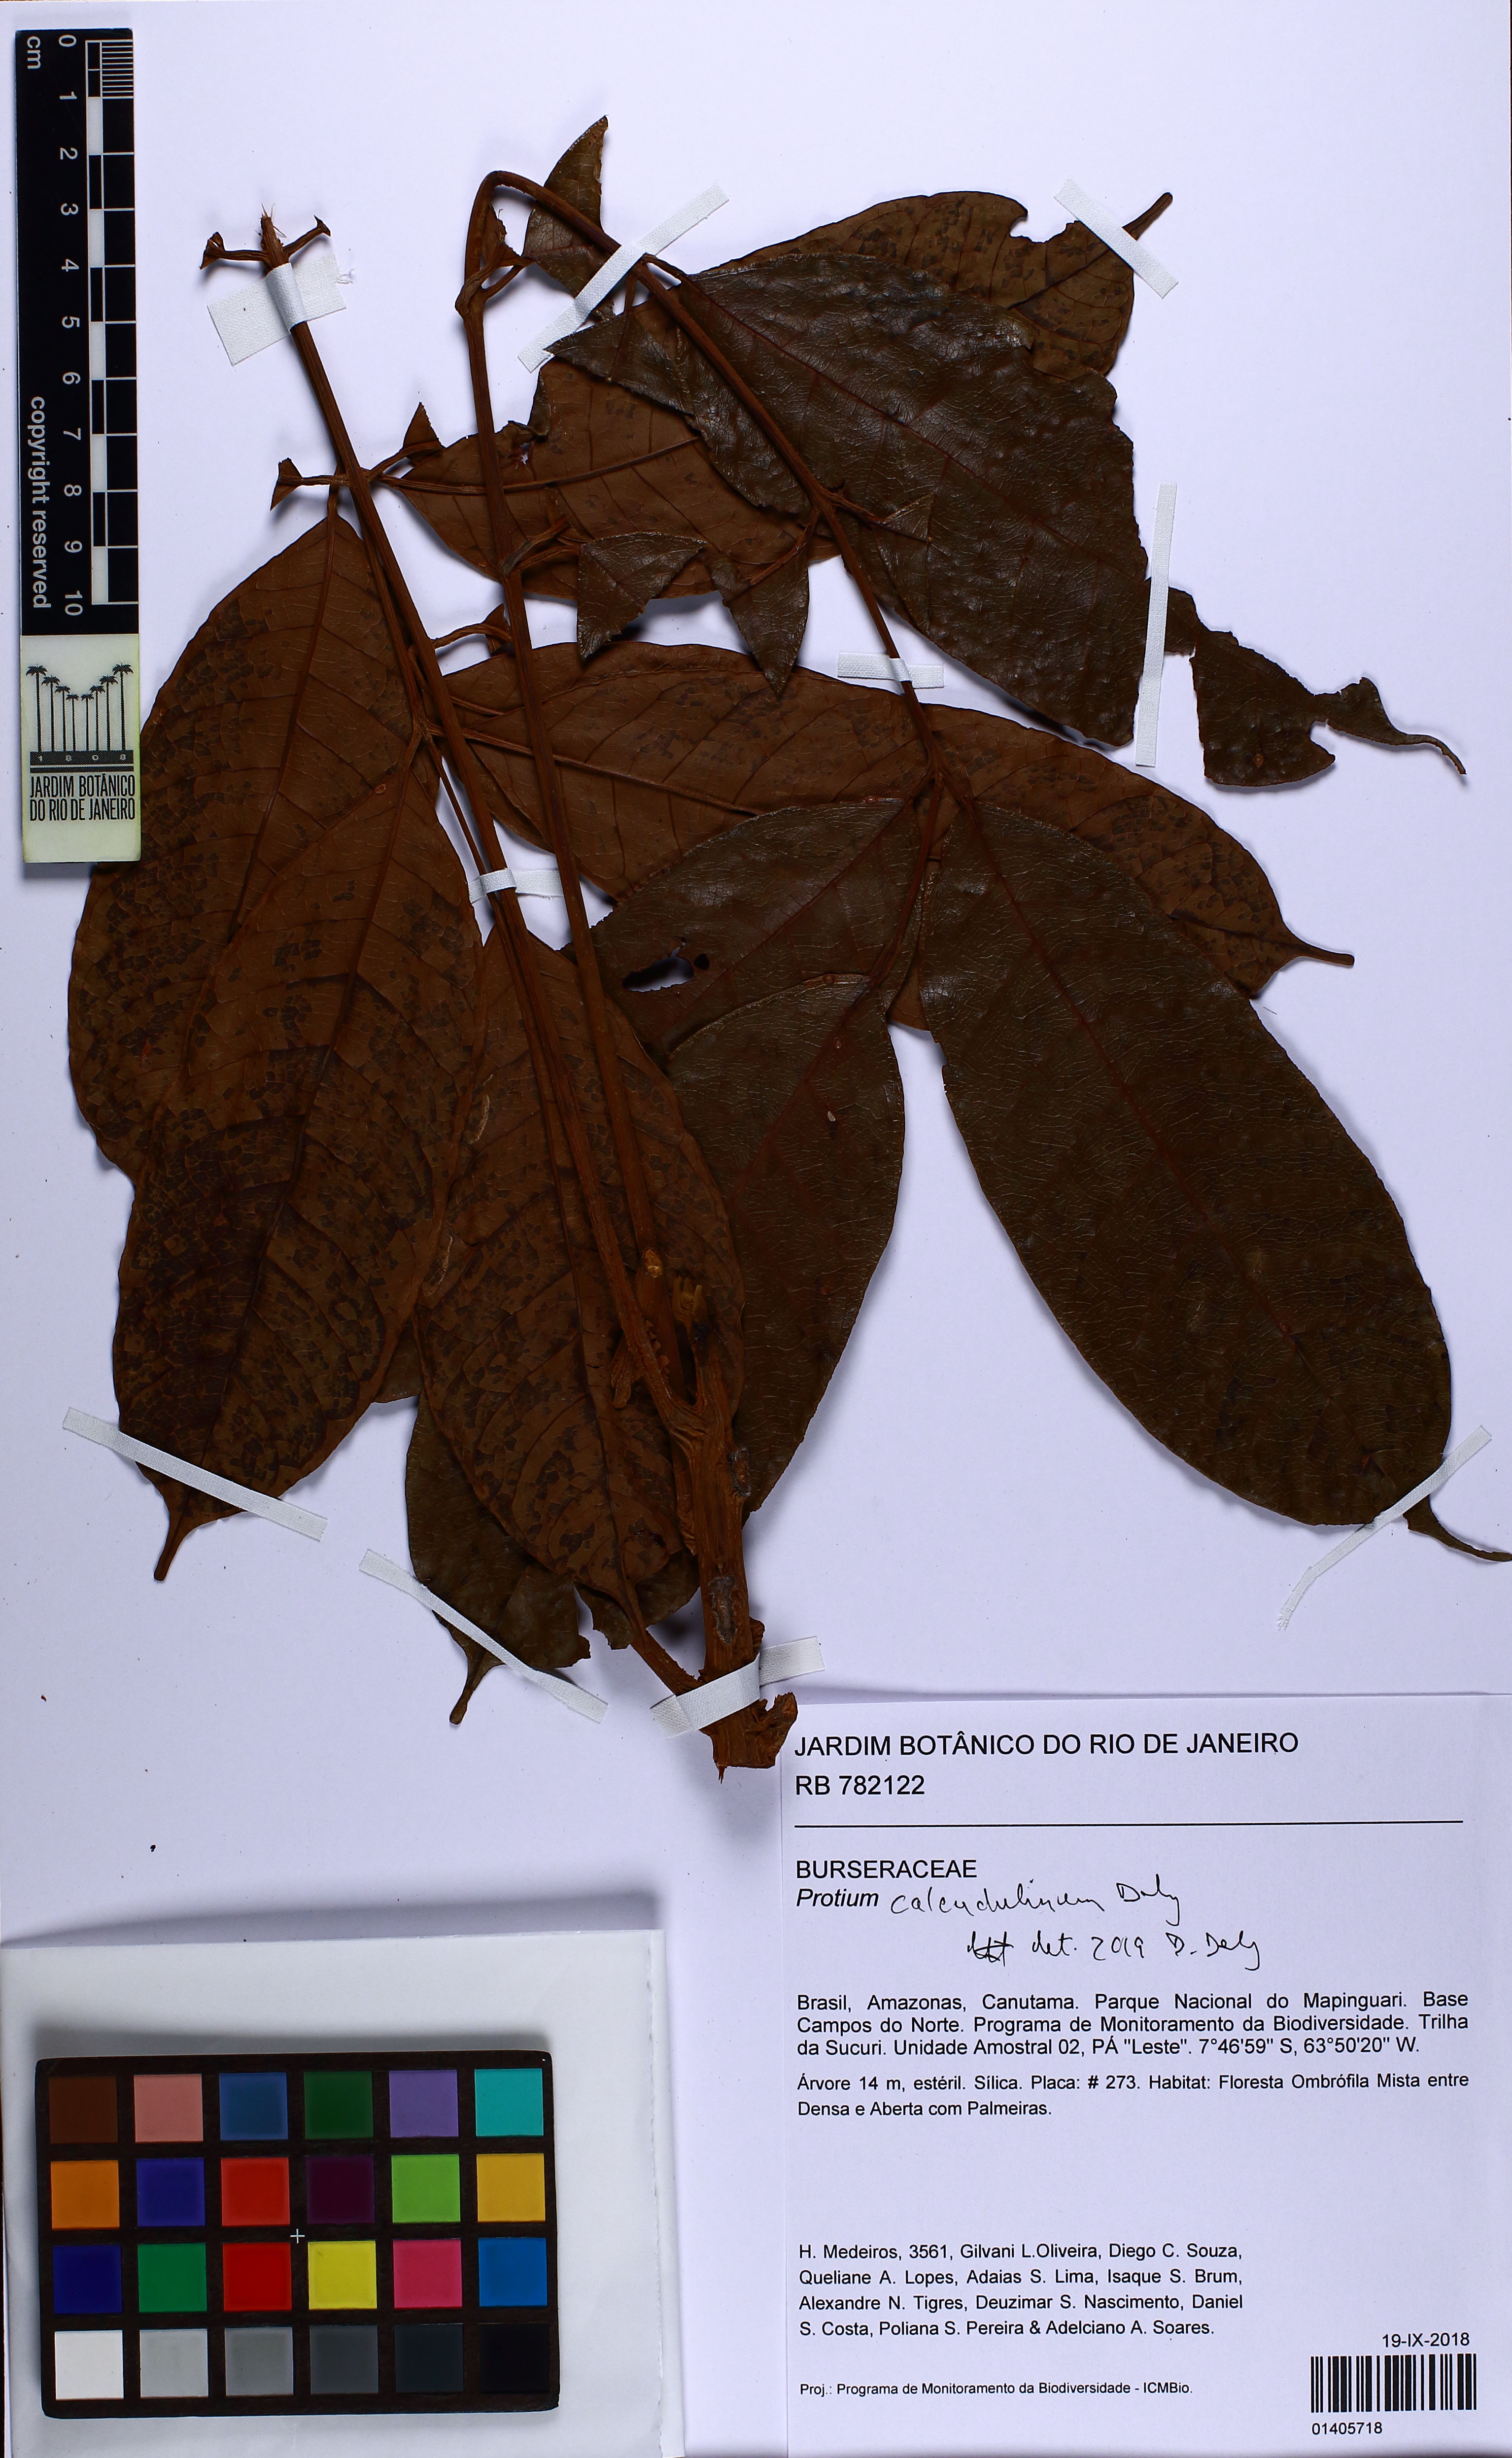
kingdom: Plantae
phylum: Tracheophyta
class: Magnoliopsida
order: Sapindales
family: Burseraceae
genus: Protium
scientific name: Protium calendulinum
